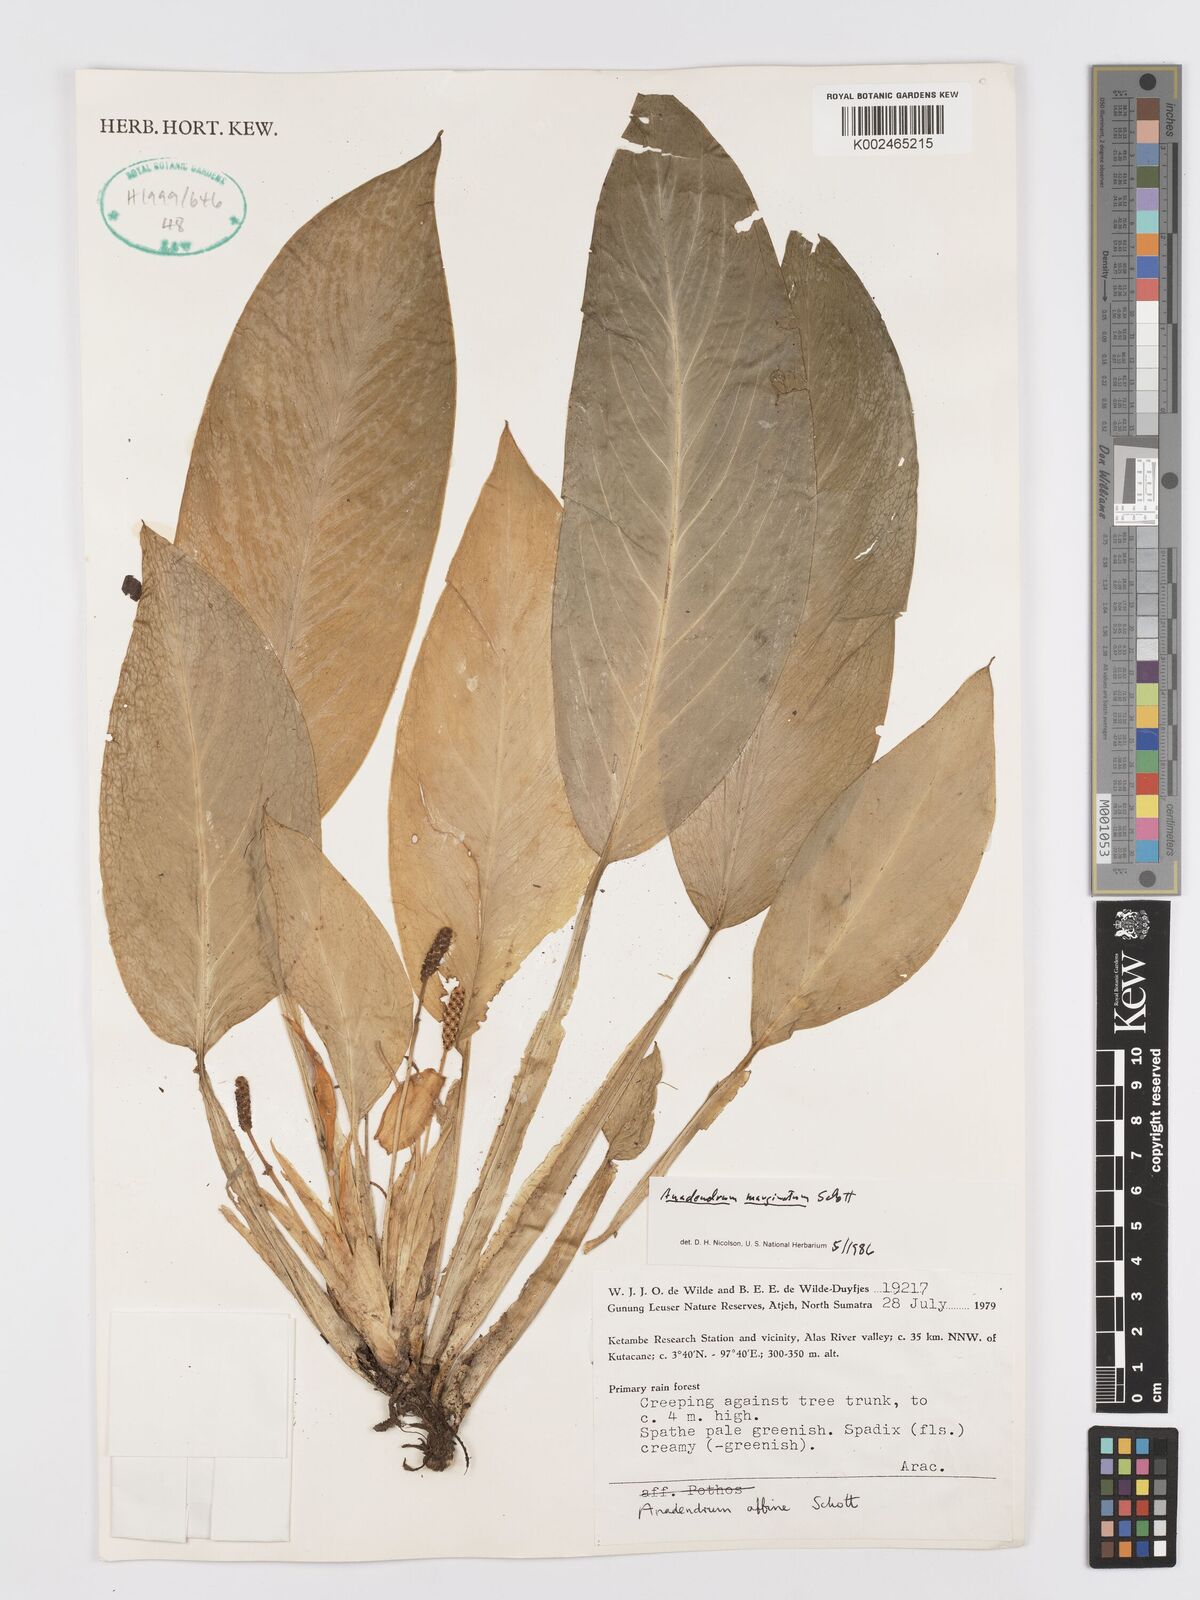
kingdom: Plantae
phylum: Tracheophyta
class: Liliopsida
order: Alismatales
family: Araceae
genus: Anadendrum
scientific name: Anadendrum marginatum
